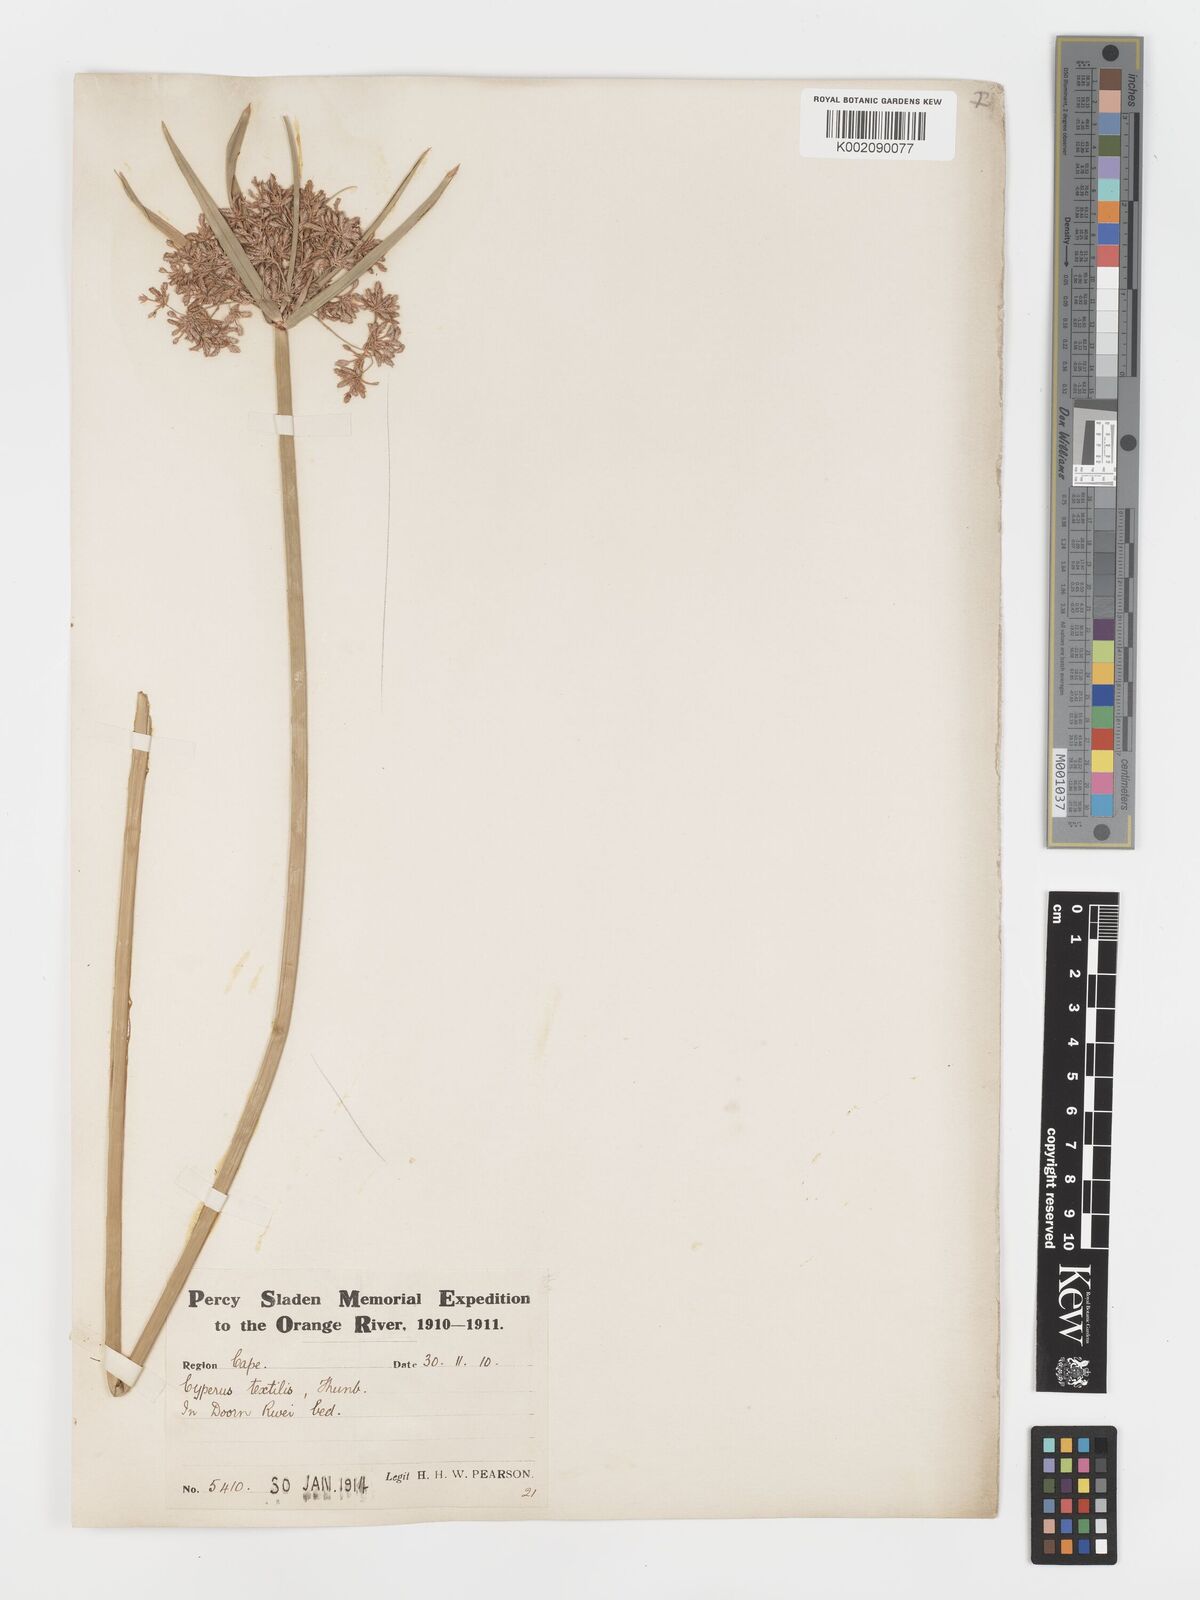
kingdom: Plantae
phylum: Tracheophyta
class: Liliopsida
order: Poales
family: Cyperaceae
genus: Cyperus
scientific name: Cyperus alternifolius
